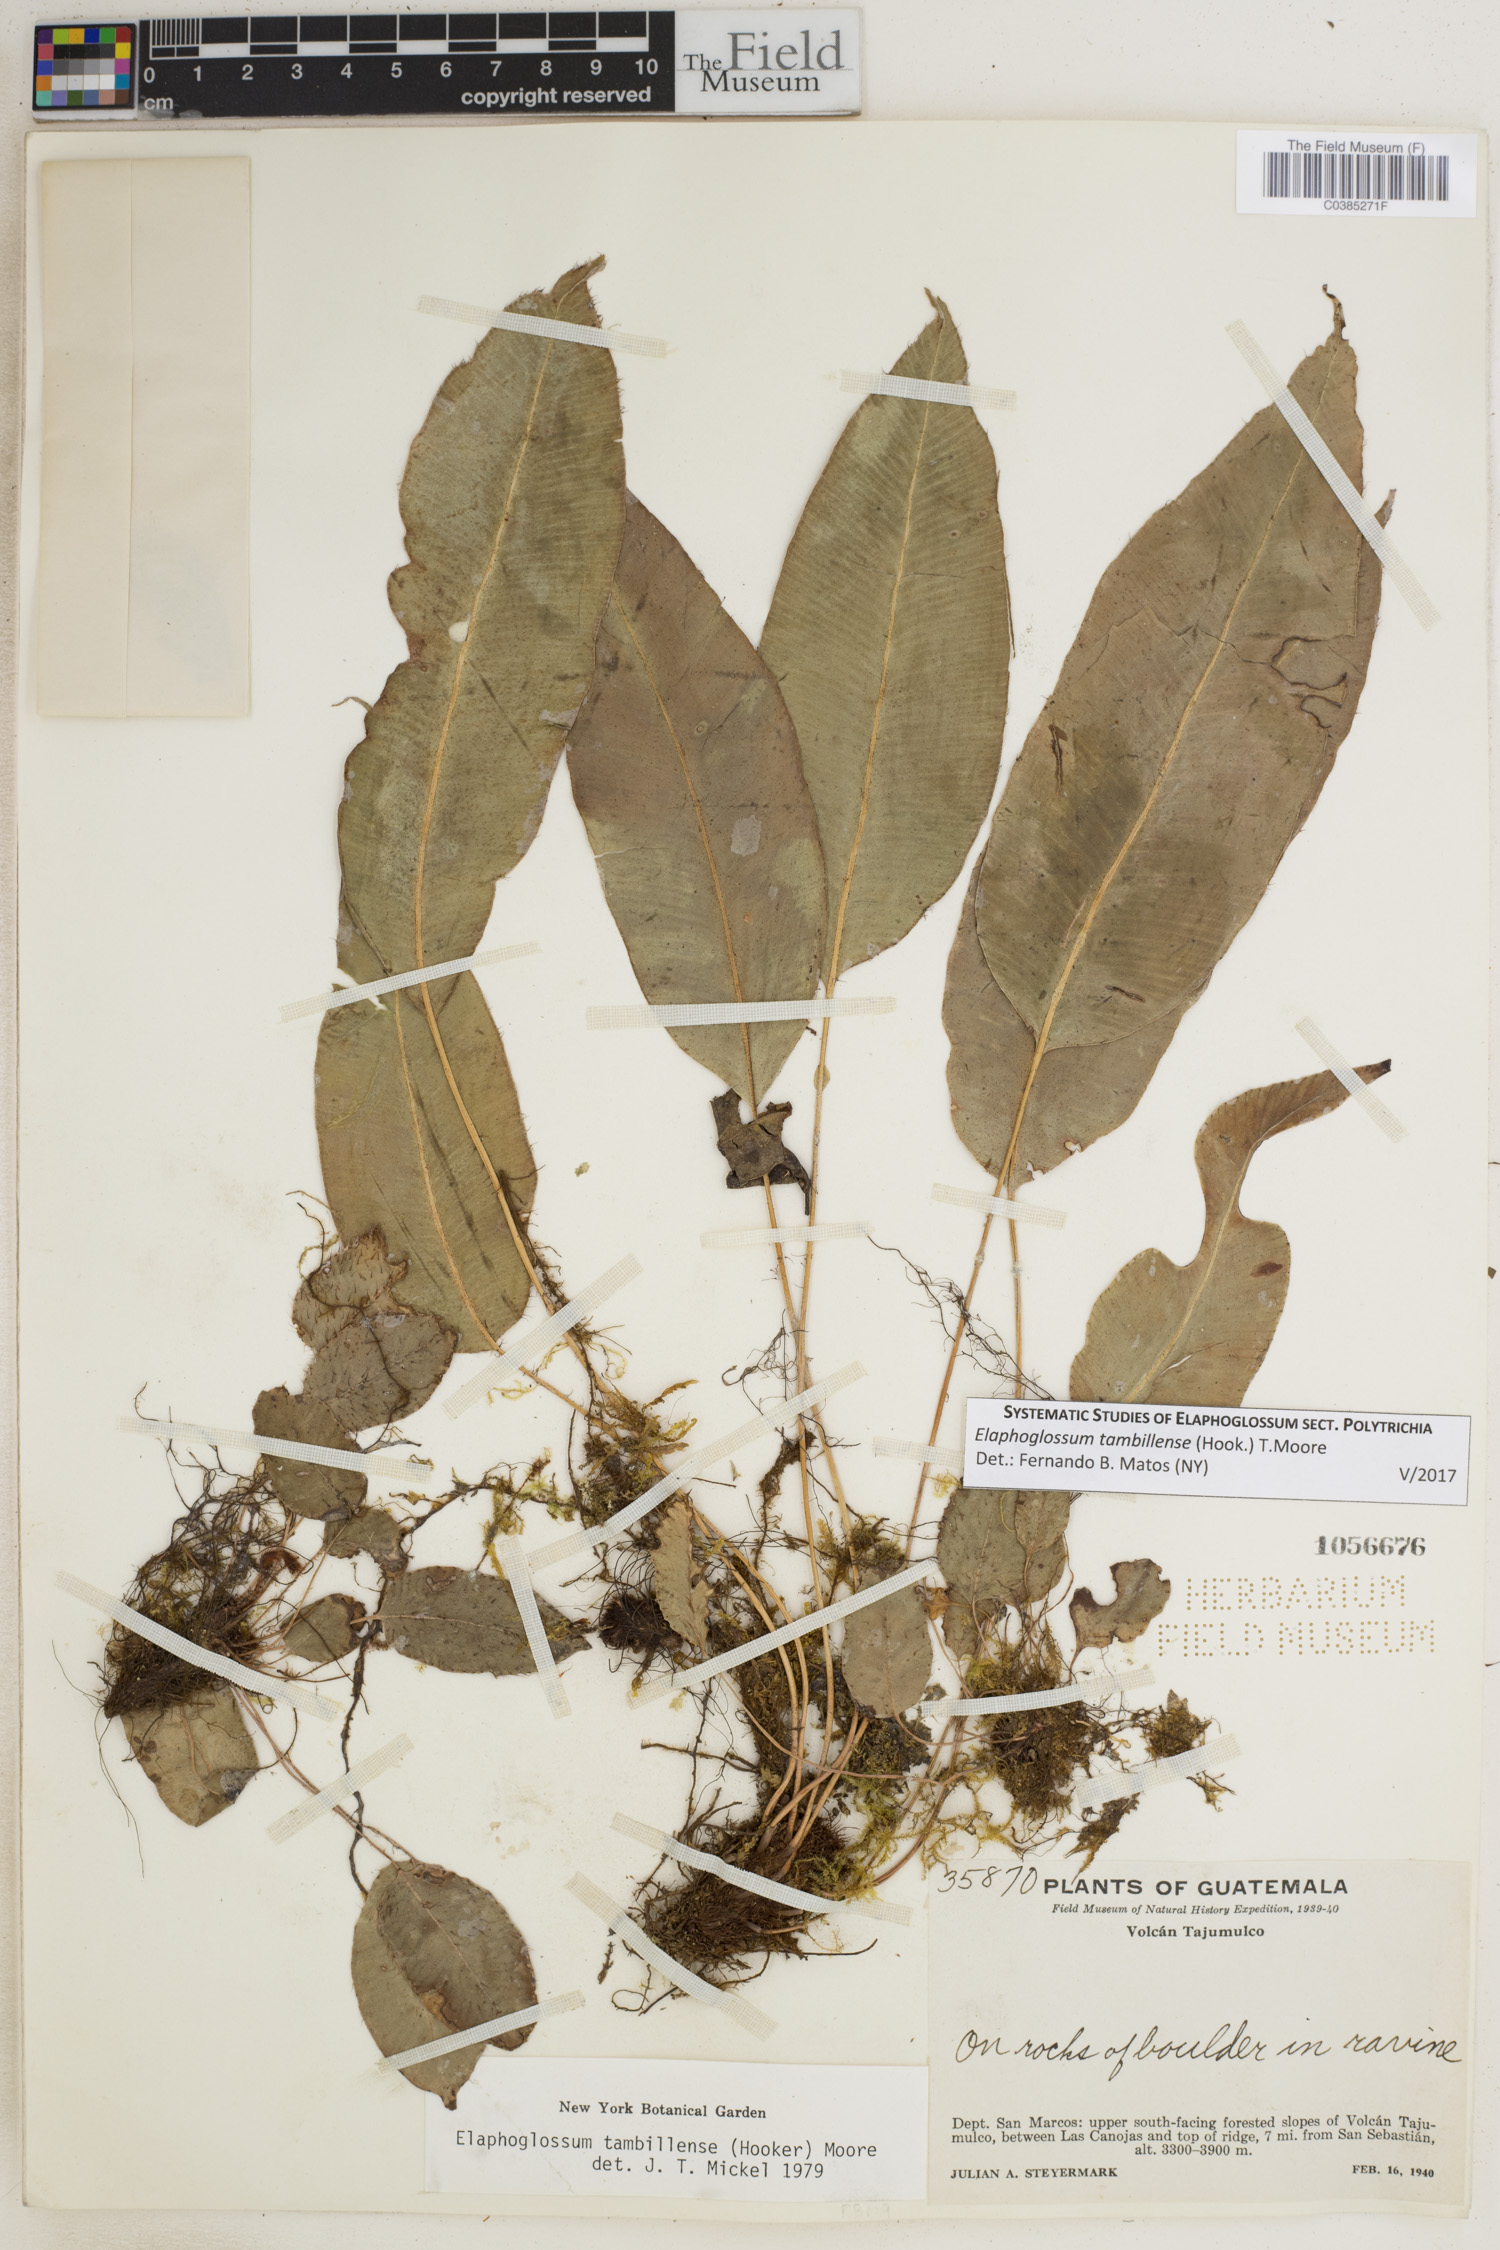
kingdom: Plantae
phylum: Tracheophyta
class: Polypodiopsida
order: Polypodiales
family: Dryopteridaceae
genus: Elaphoglossum
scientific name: Elaphoglossum tambillense
